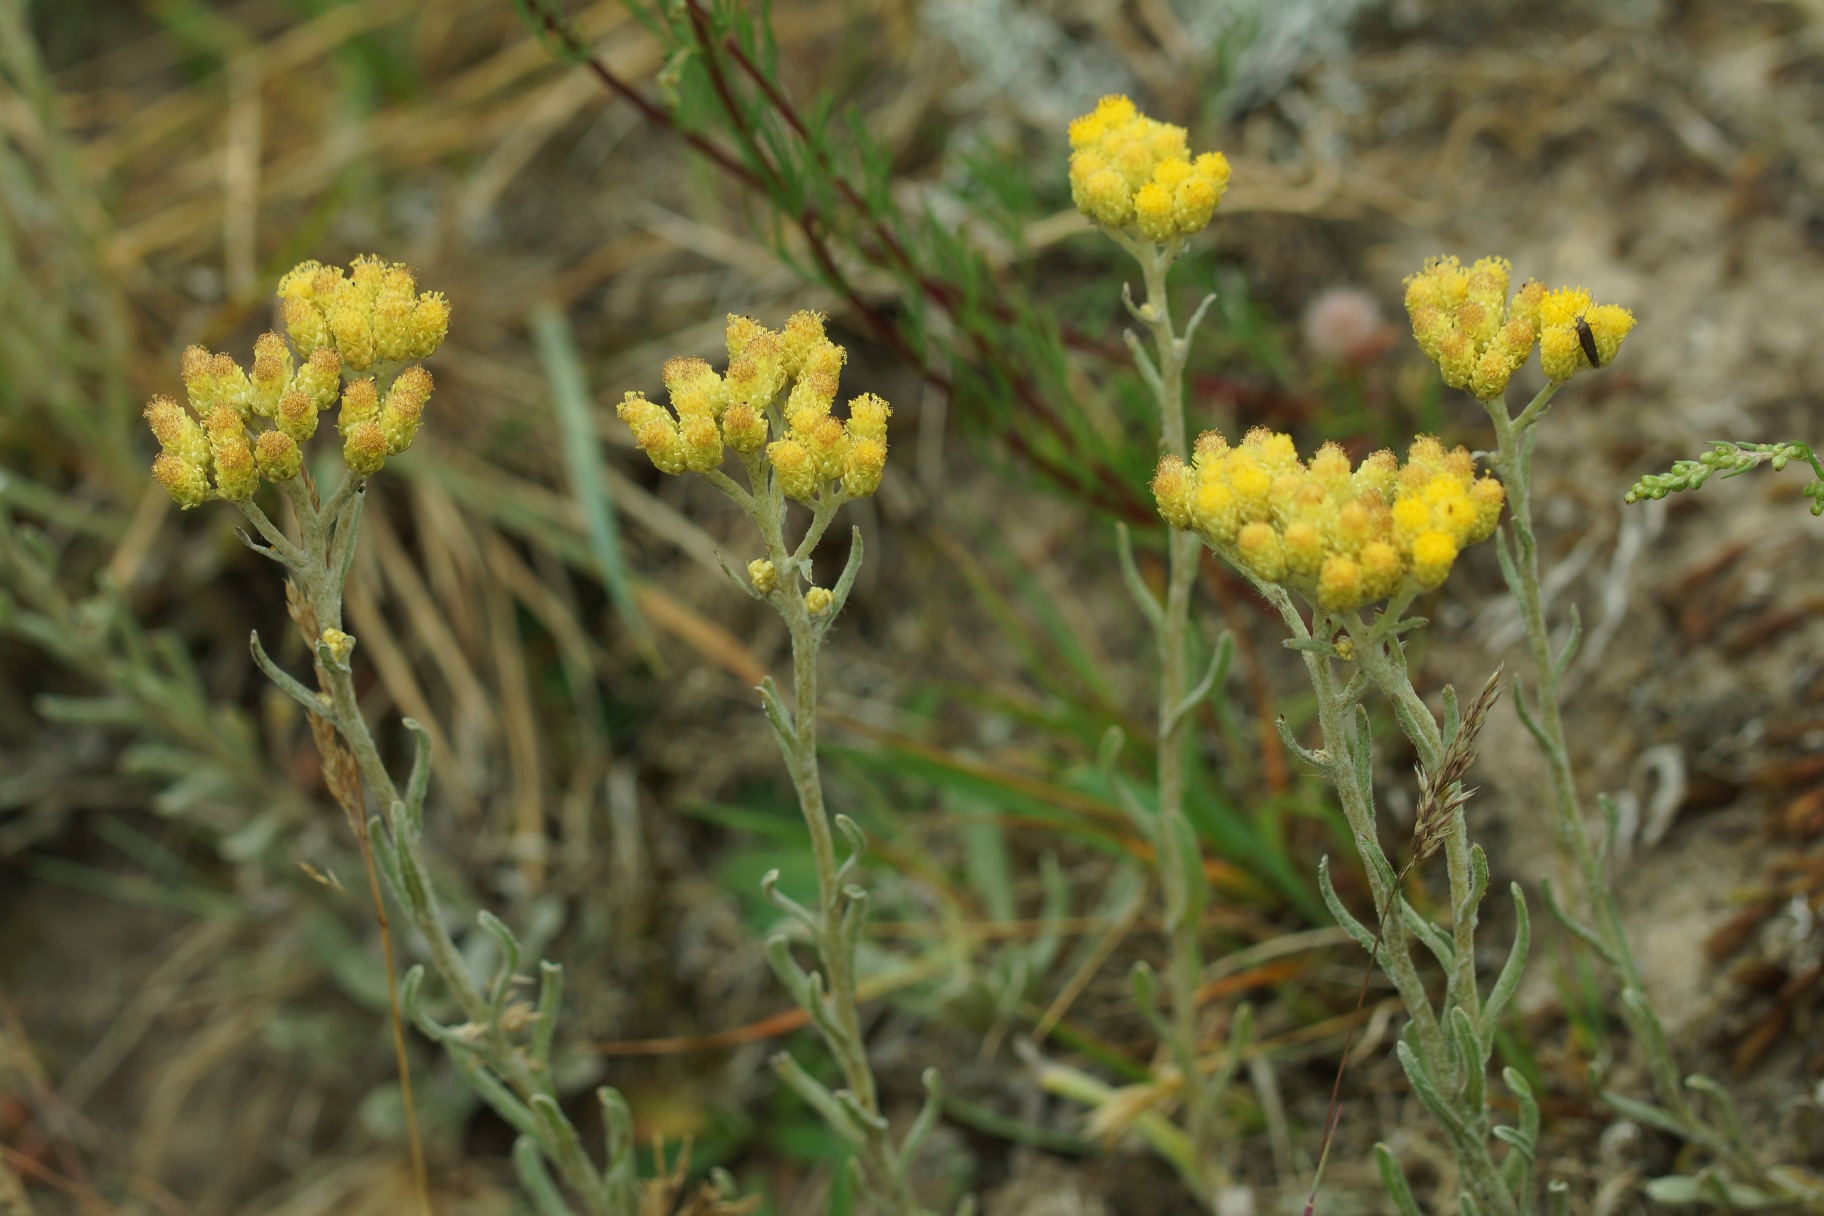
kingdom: Plantae
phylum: Tracheophyta
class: Magnoliopsida
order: Asterales
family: Asteraceae
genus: Helichrysum
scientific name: Helichrysum arenarium
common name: Gul evighedsblomst
